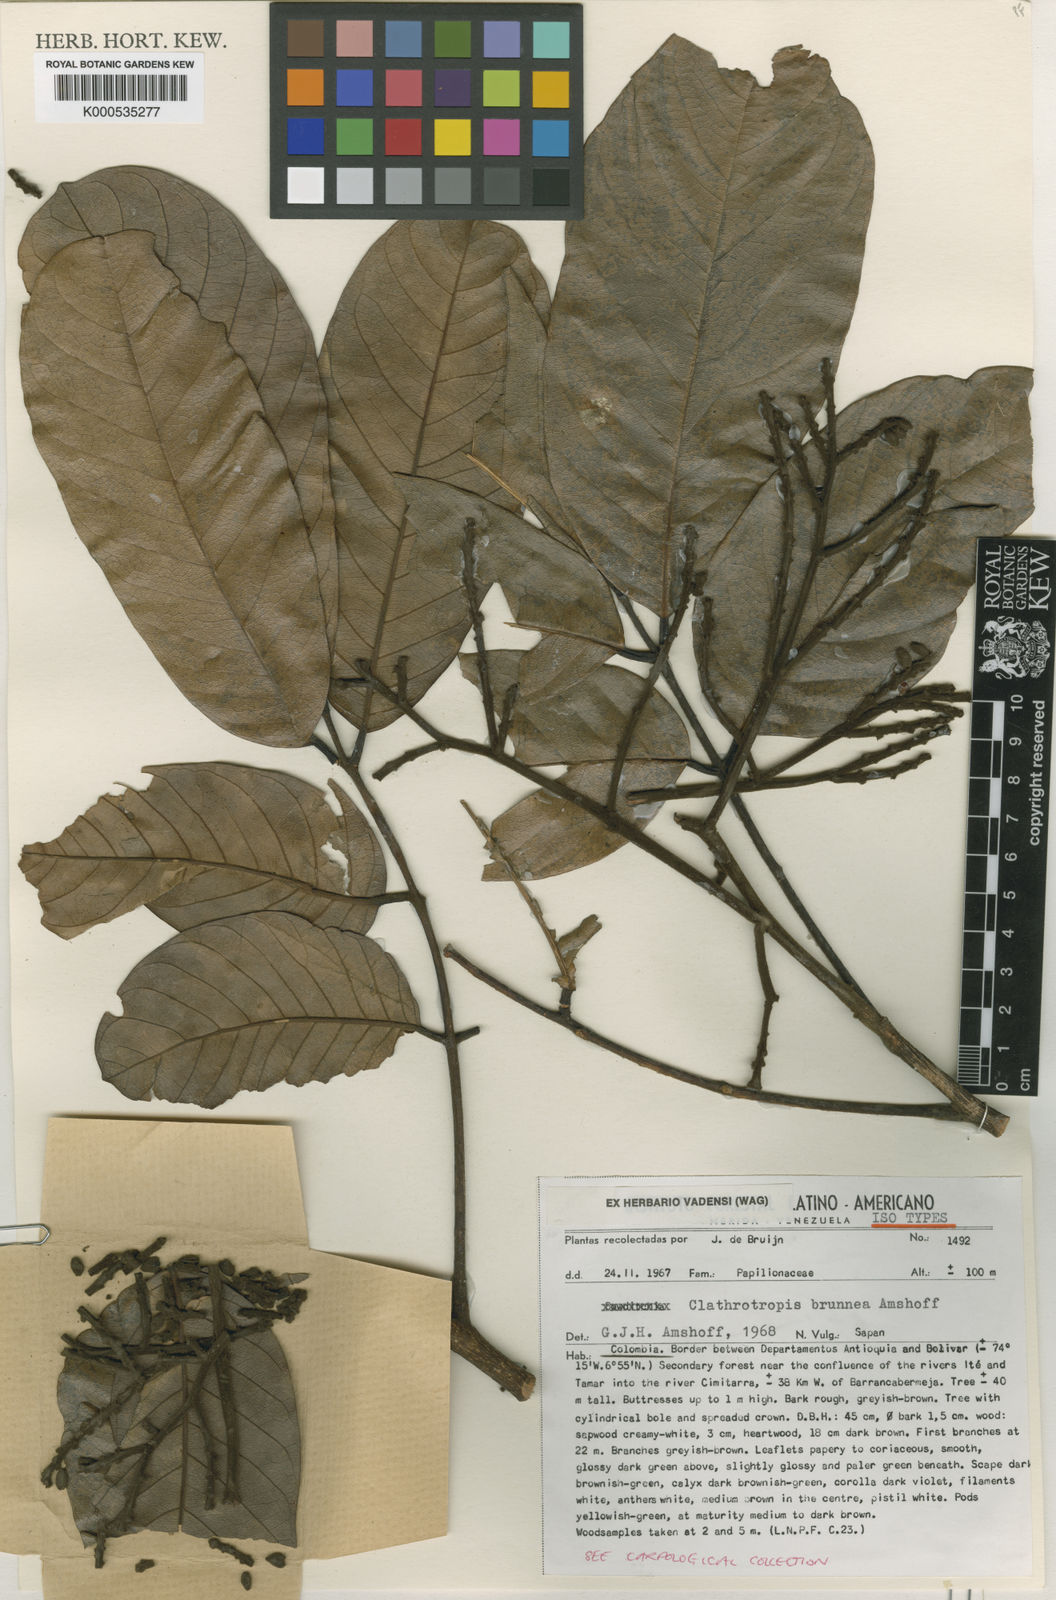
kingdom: Plantae
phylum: Tracheophyta
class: Magnoliopsida
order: Fabales
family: Fabaceae
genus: Clathrotropis
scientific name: Clathrotropis brunnea
